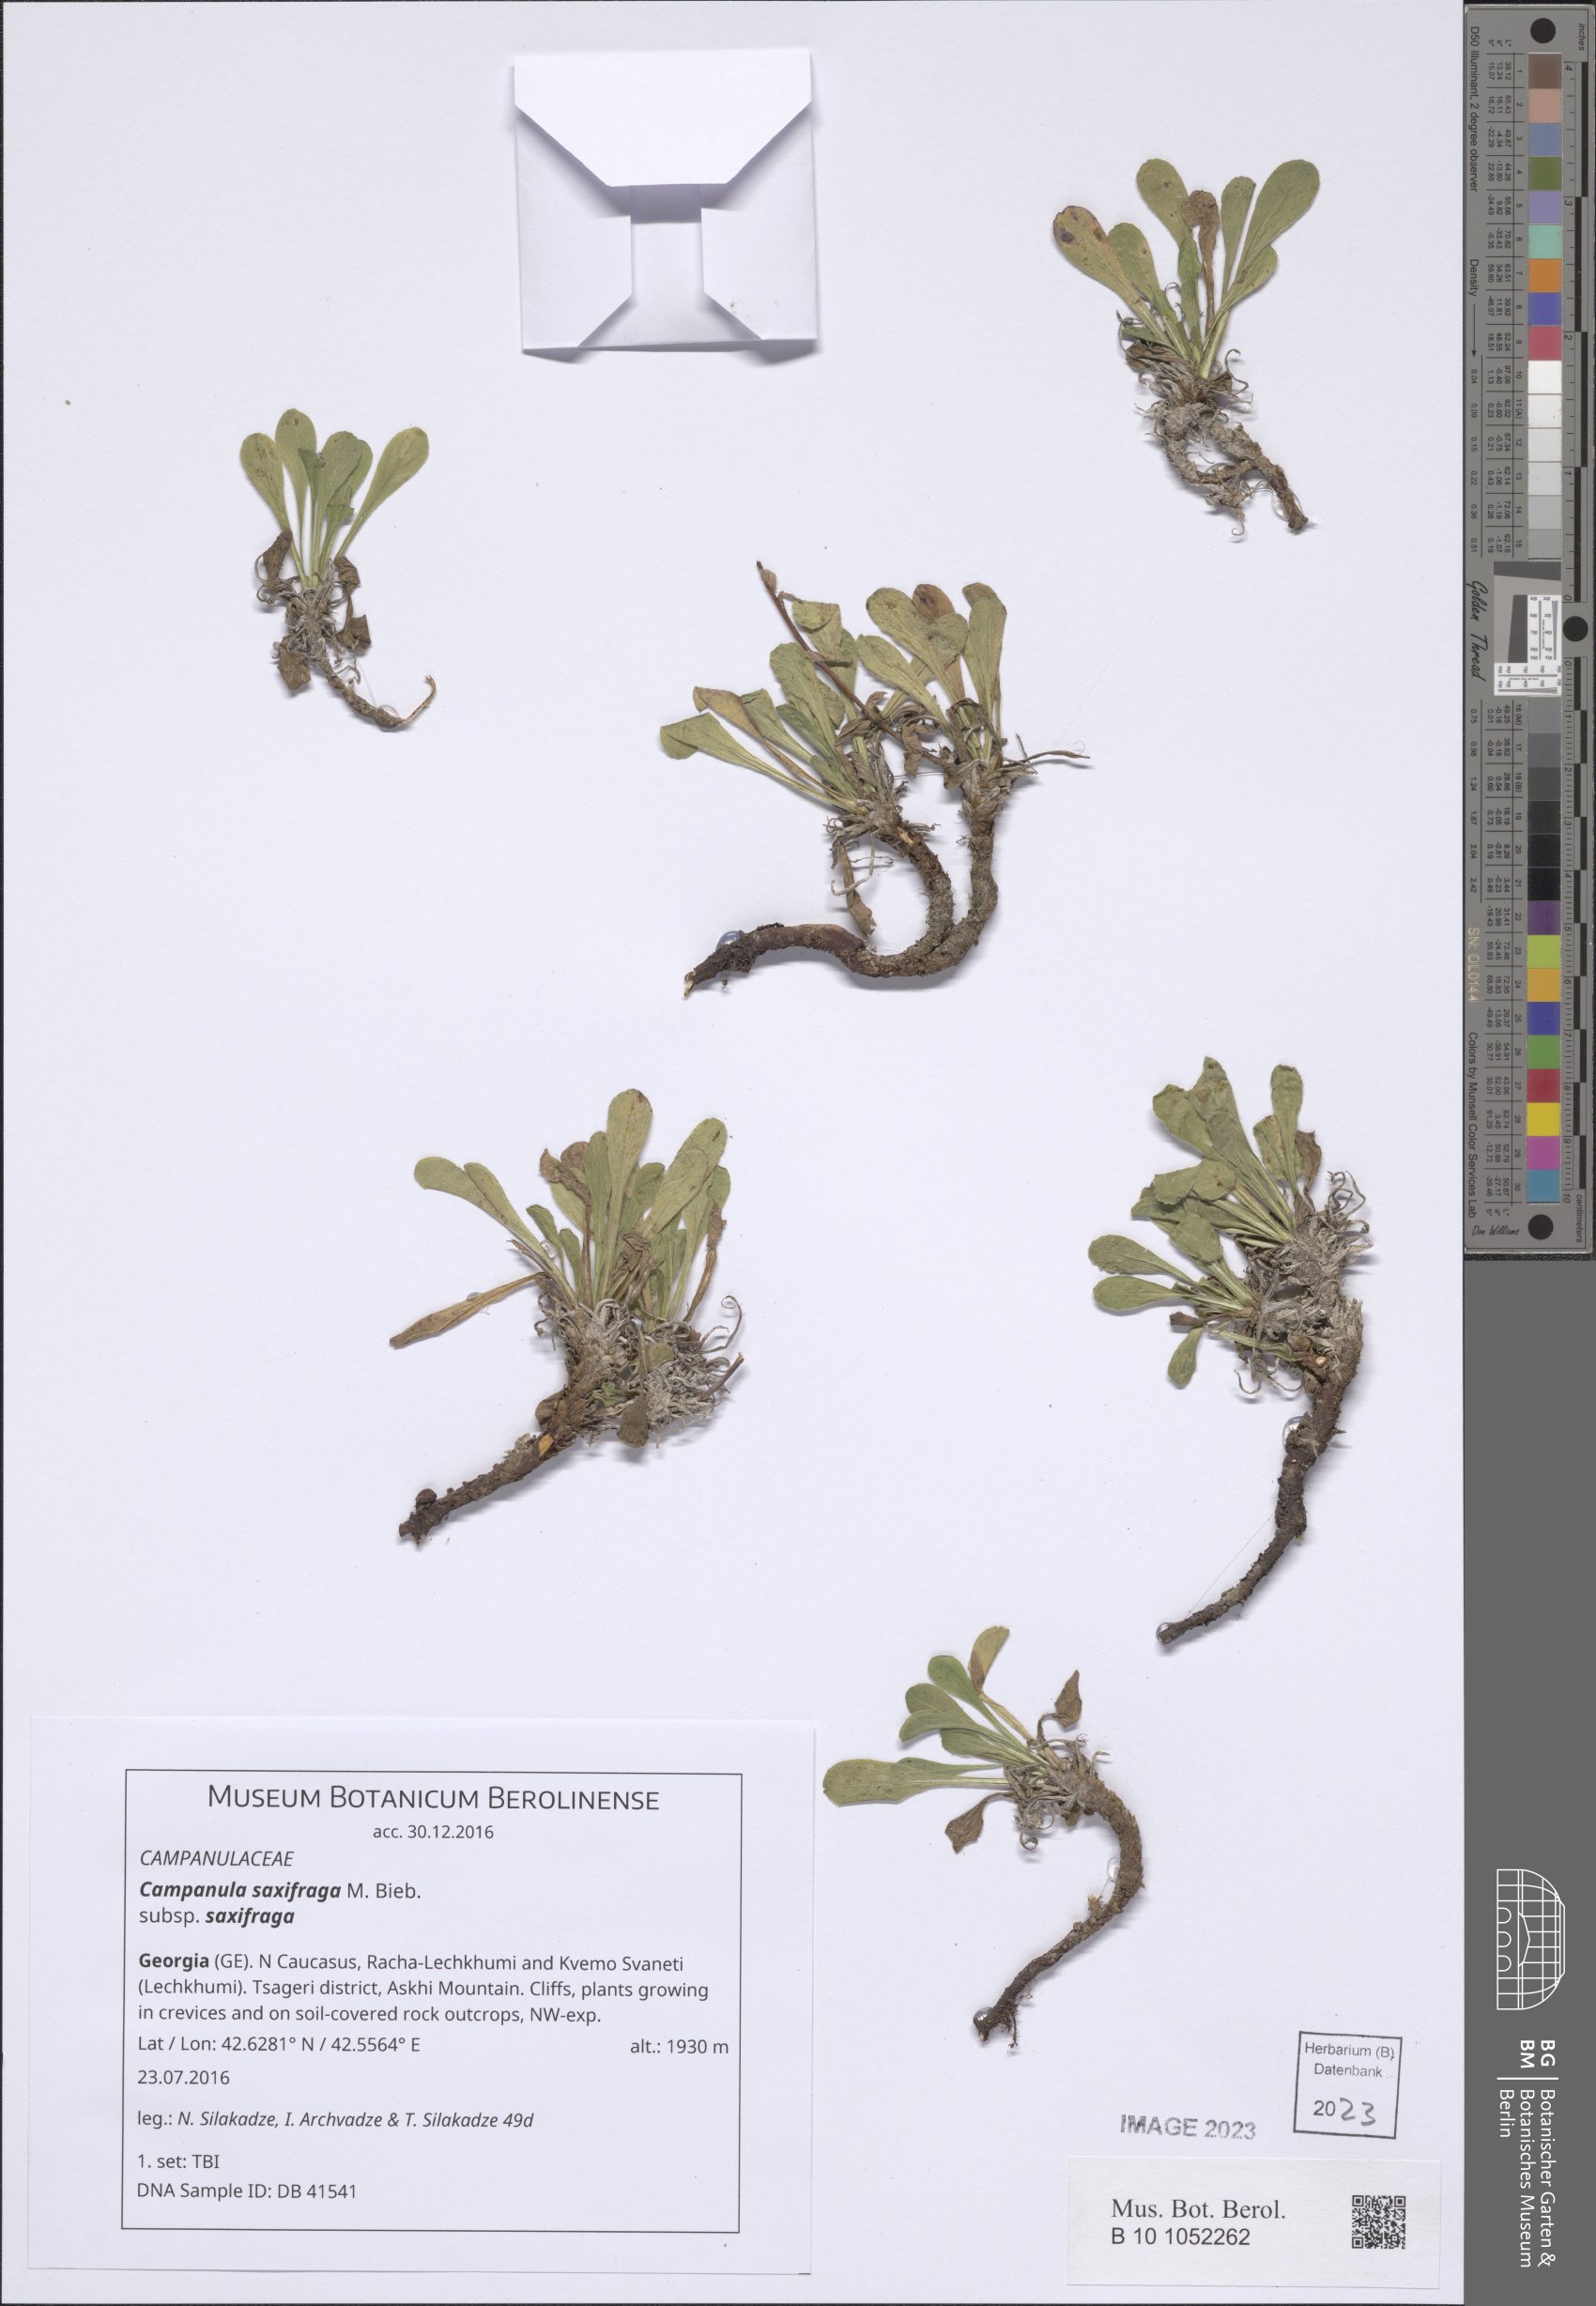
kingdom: Plantae
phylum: Tracheophyta
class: Magnoliopsida
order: Asterales
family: Campanulaceae
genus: Campanula
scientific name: Campanula saxifraga
